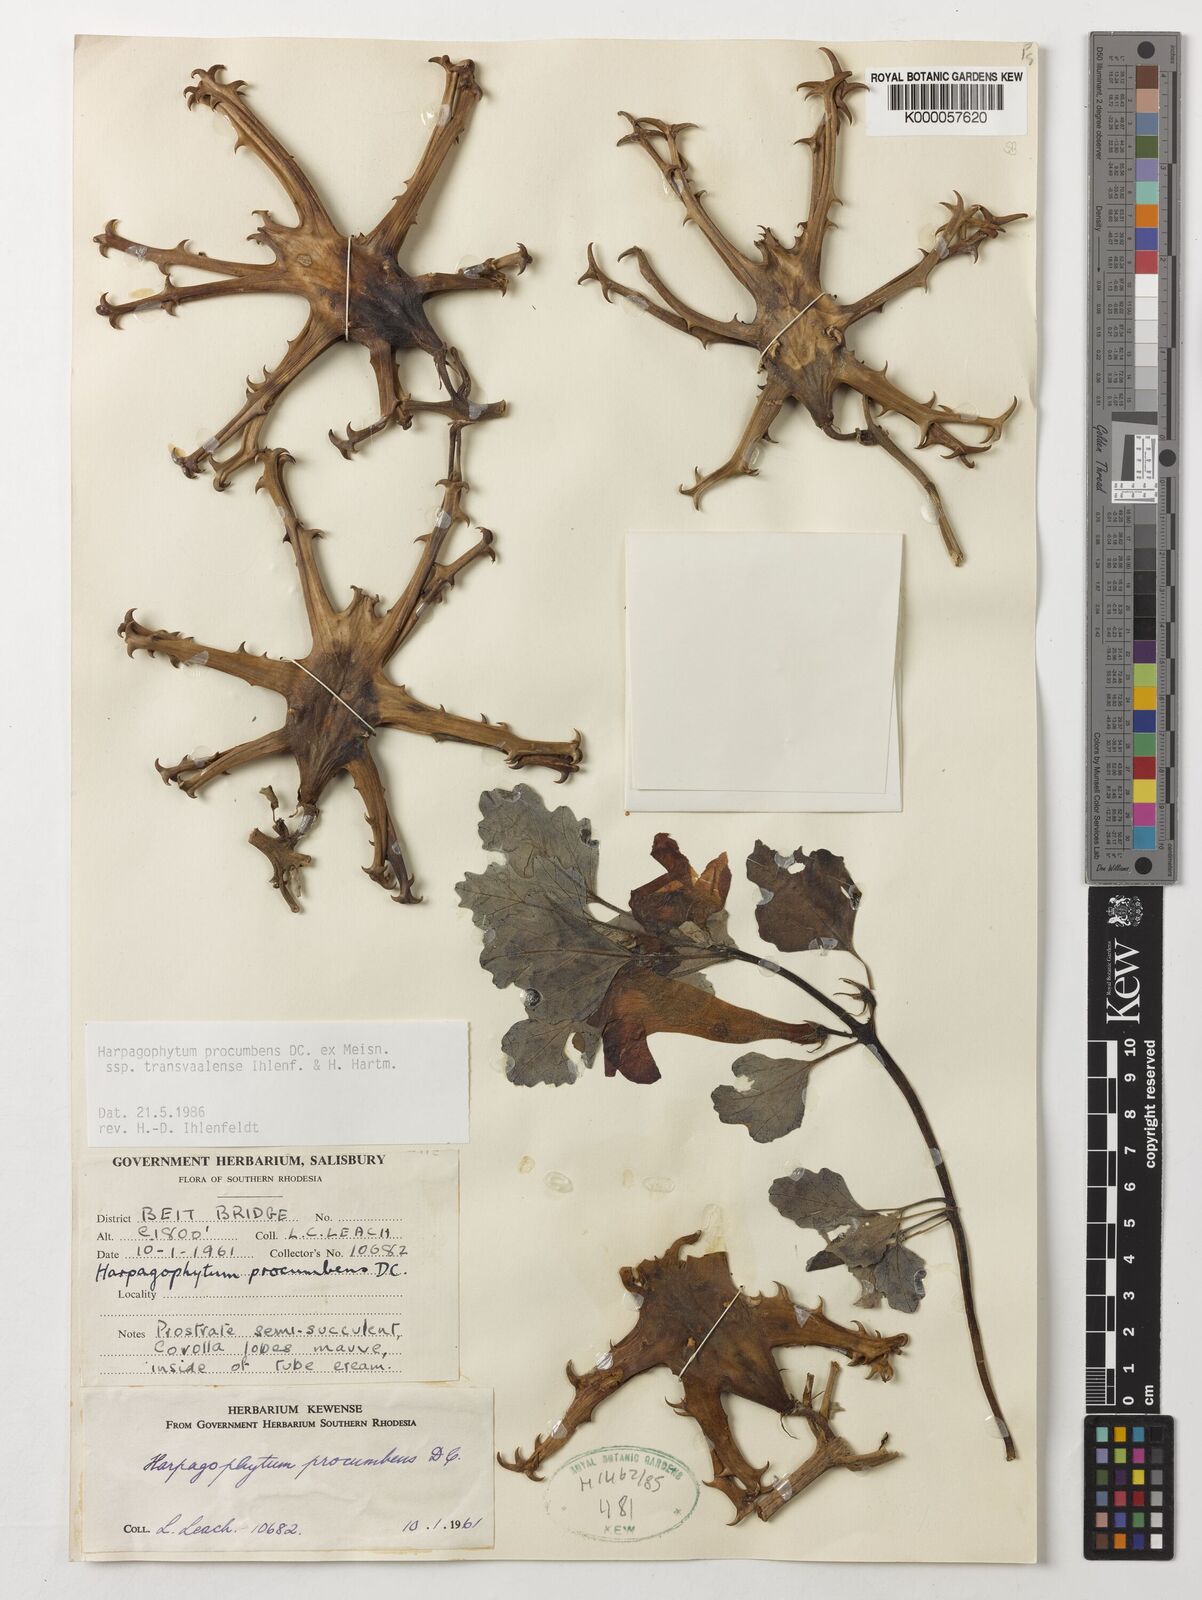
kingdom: Plantae
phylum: Tracheophyta
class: Magnoliopsida
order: Lamiales
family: Pedaliaceae
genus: Harpagophytum
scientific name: Harpagophytum procumbens
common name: Grappleplant
